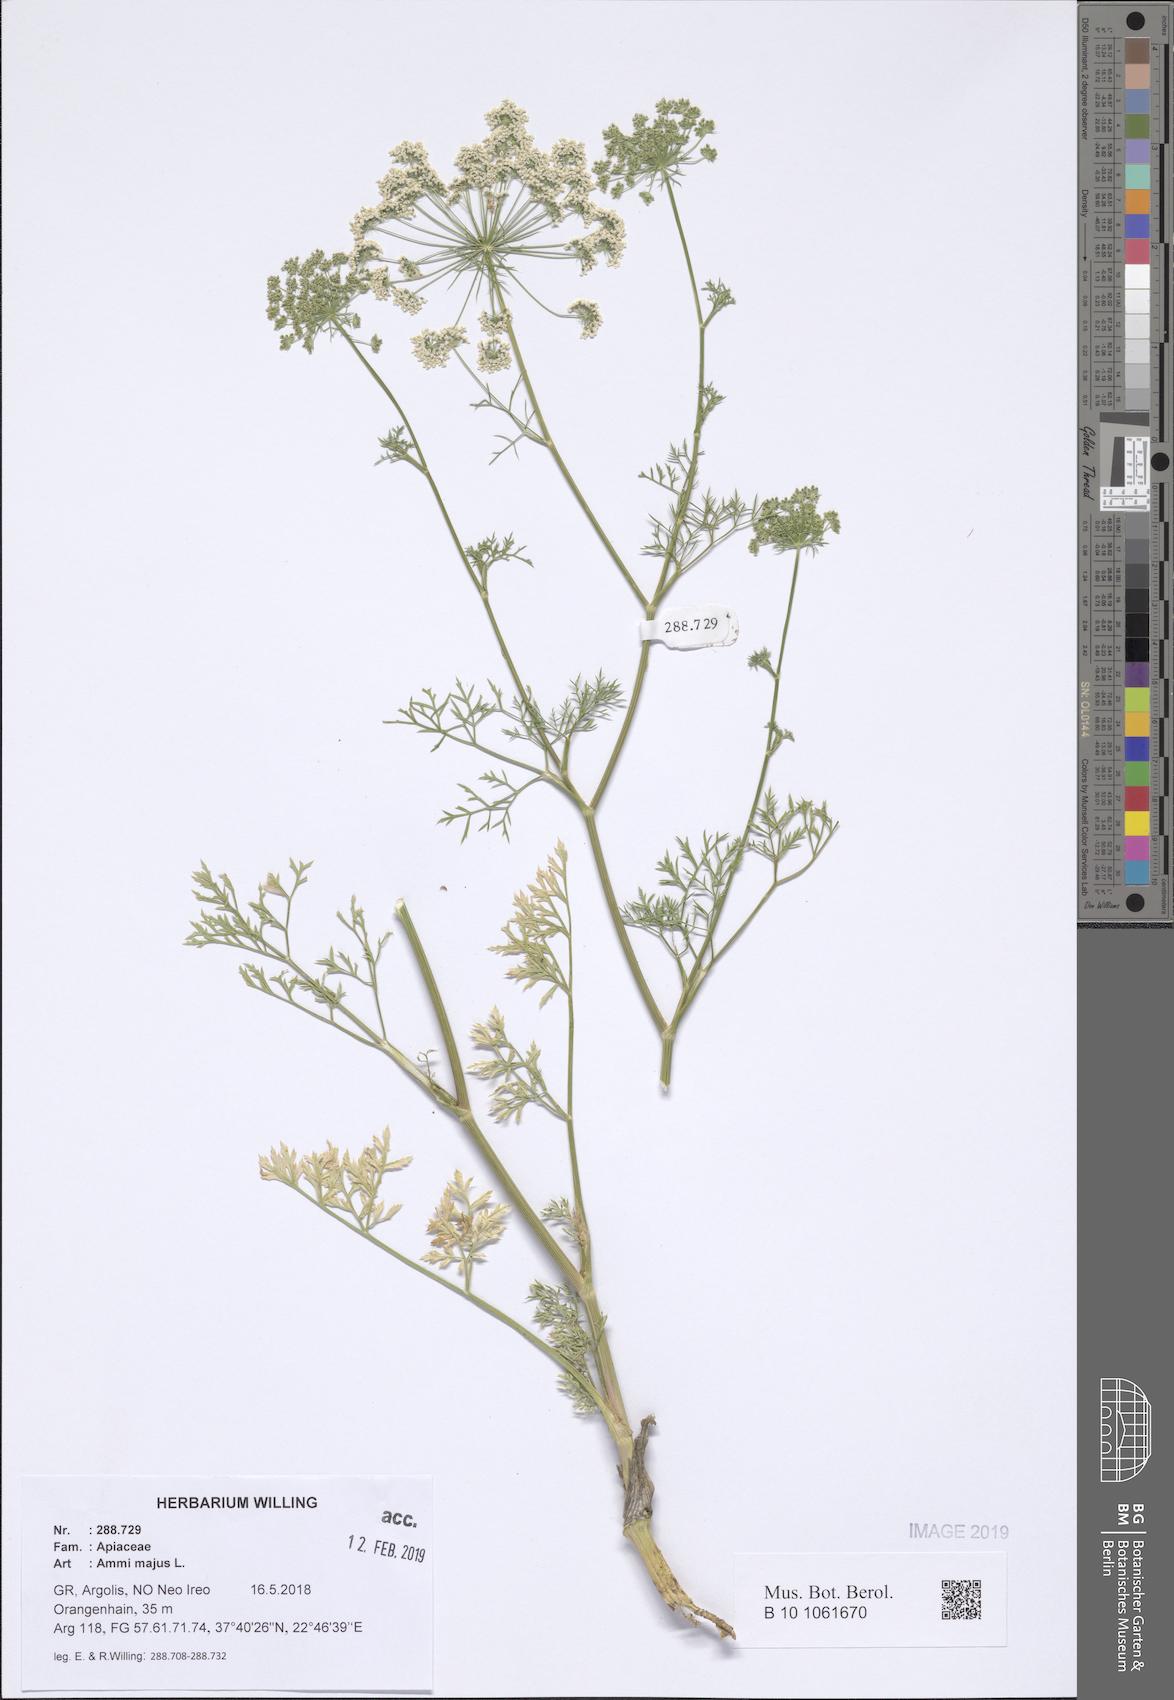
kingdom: Plantae
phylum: Tracheophyta
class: Magnoliopsida
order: Apiales
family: Apiaceae
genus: Ammi
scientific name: Ammi majus
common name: Bullwort
